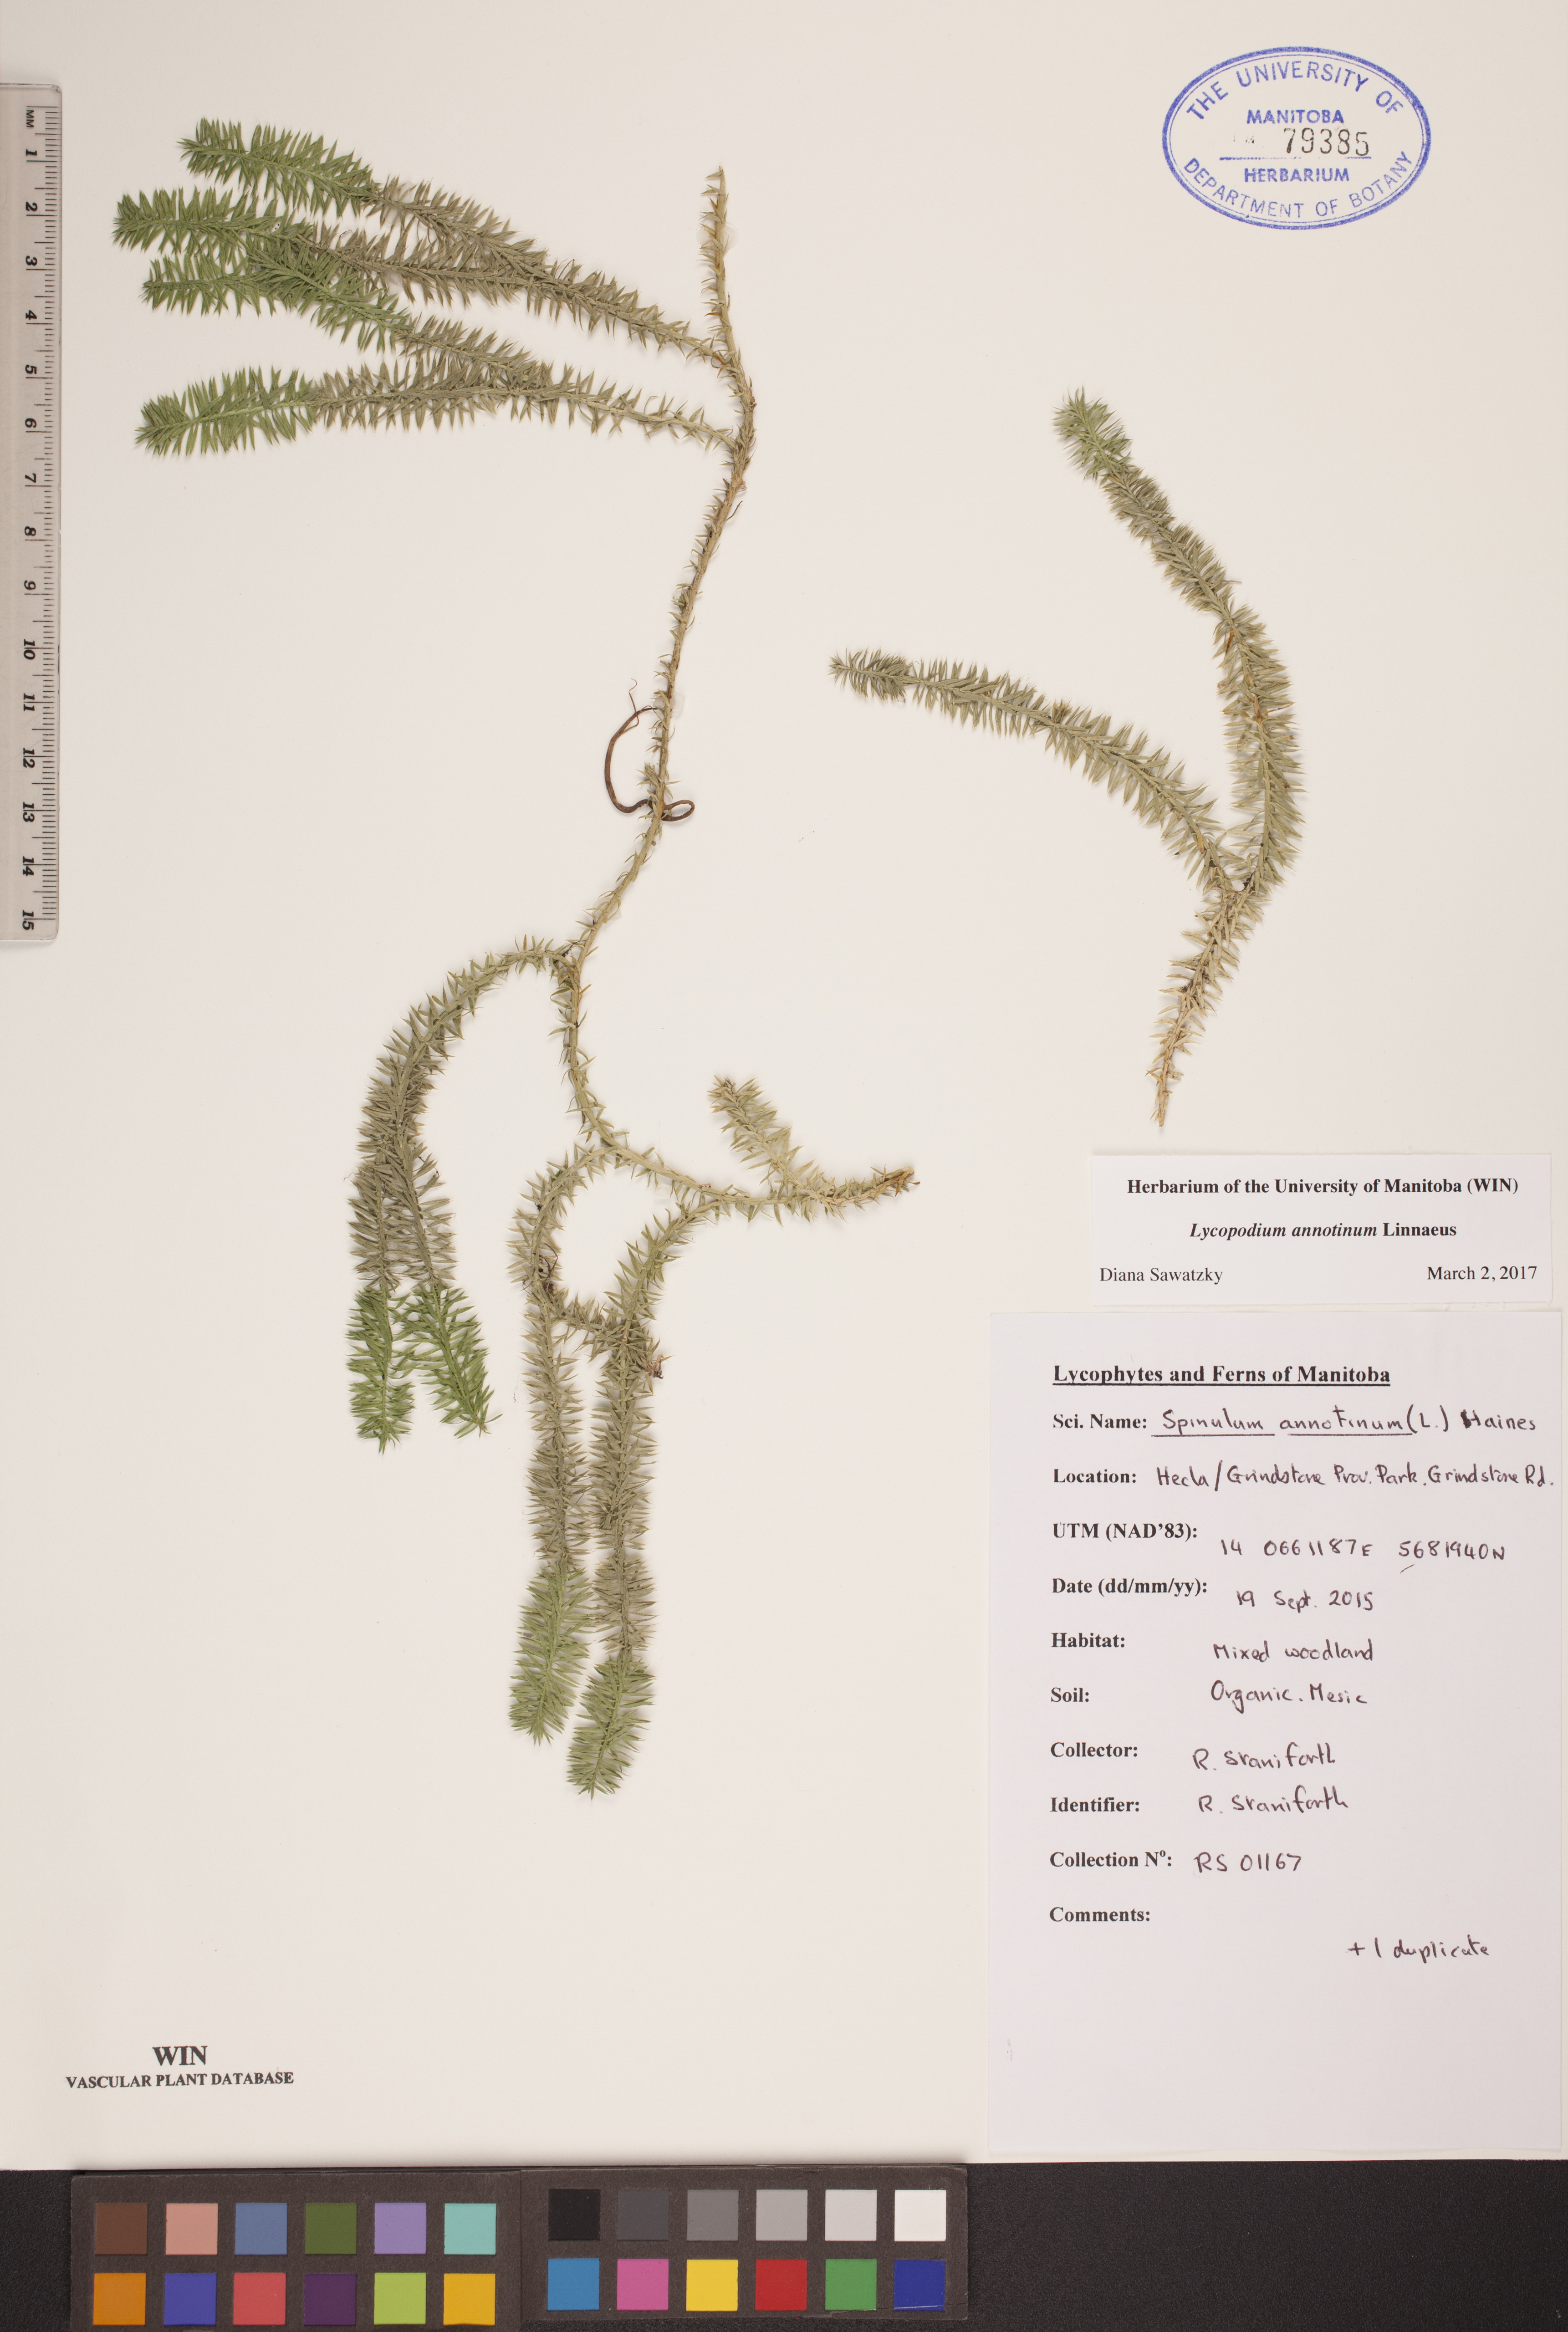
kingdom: Plantae
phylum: Tracheophyta
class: Lycopodiopsida
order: Lycopodiales
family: Lycopodiaceae
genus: Spinulum
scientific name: Spinulum annotinum
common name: Interrupted club-moss
